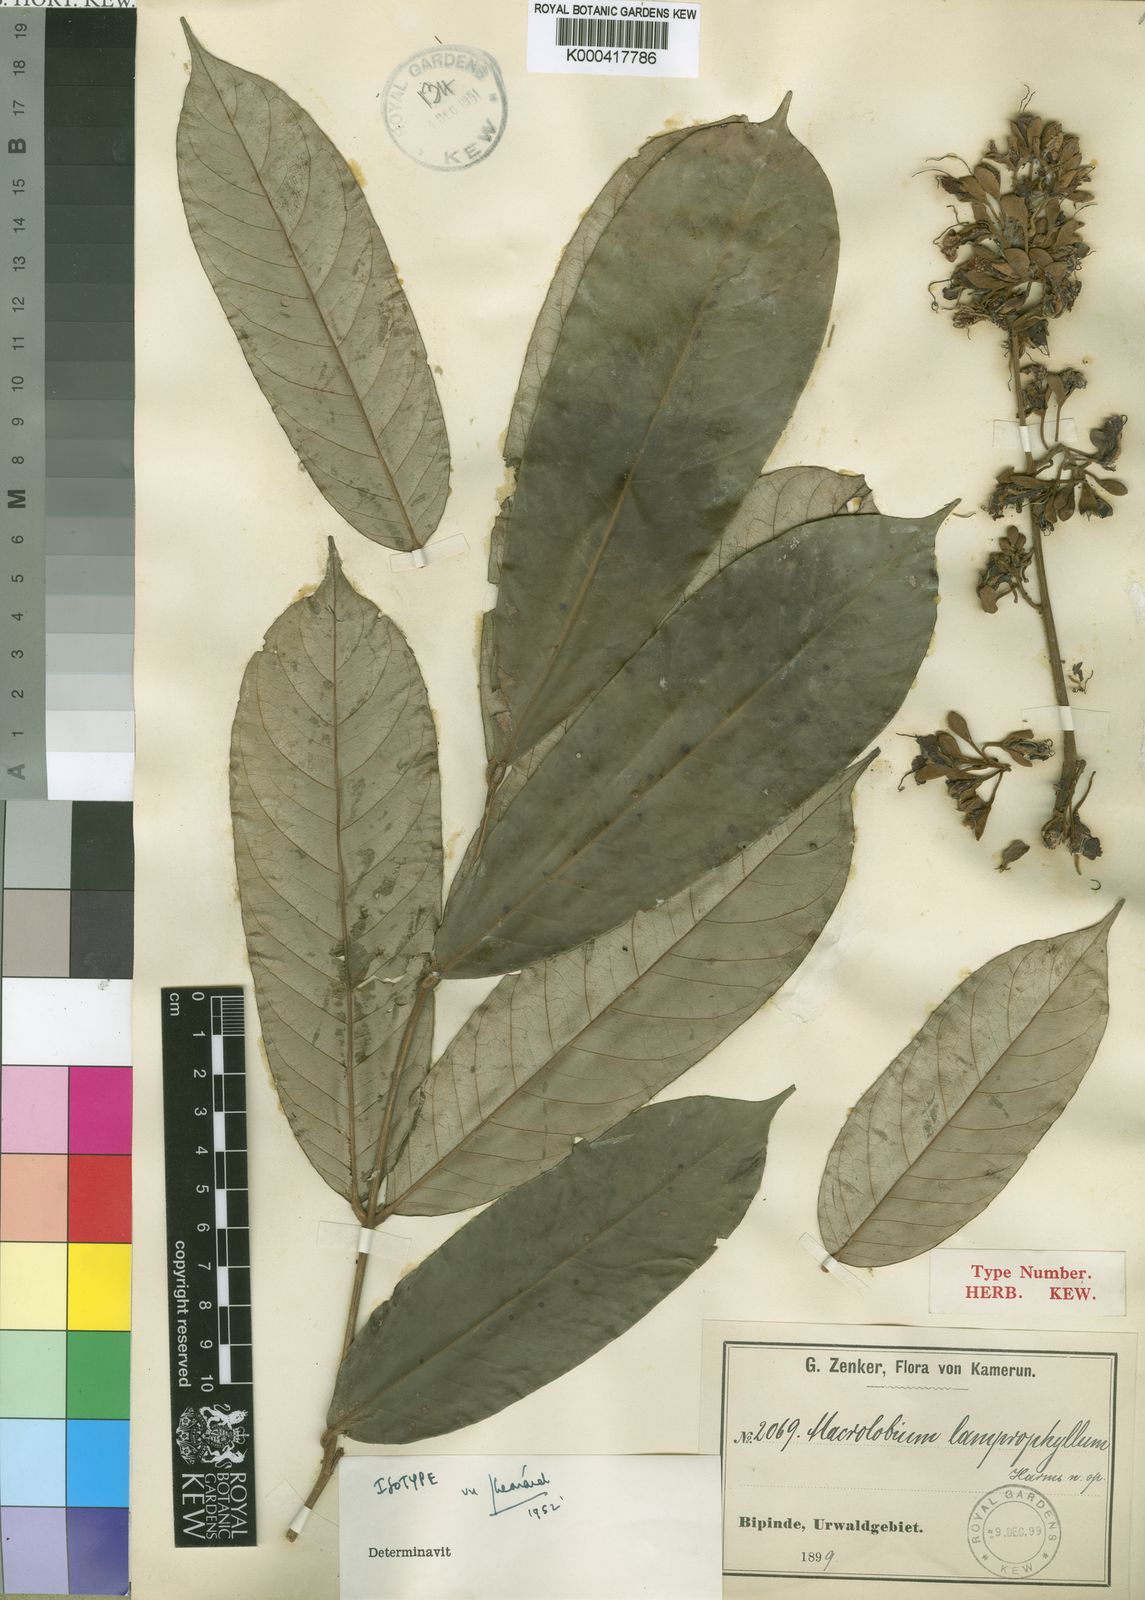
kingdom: Plantae
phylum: Tracheophyta
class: Magnoliopsida
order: Fabales
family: Fabaceae
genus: Anthonotha
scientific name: Anthonotha
